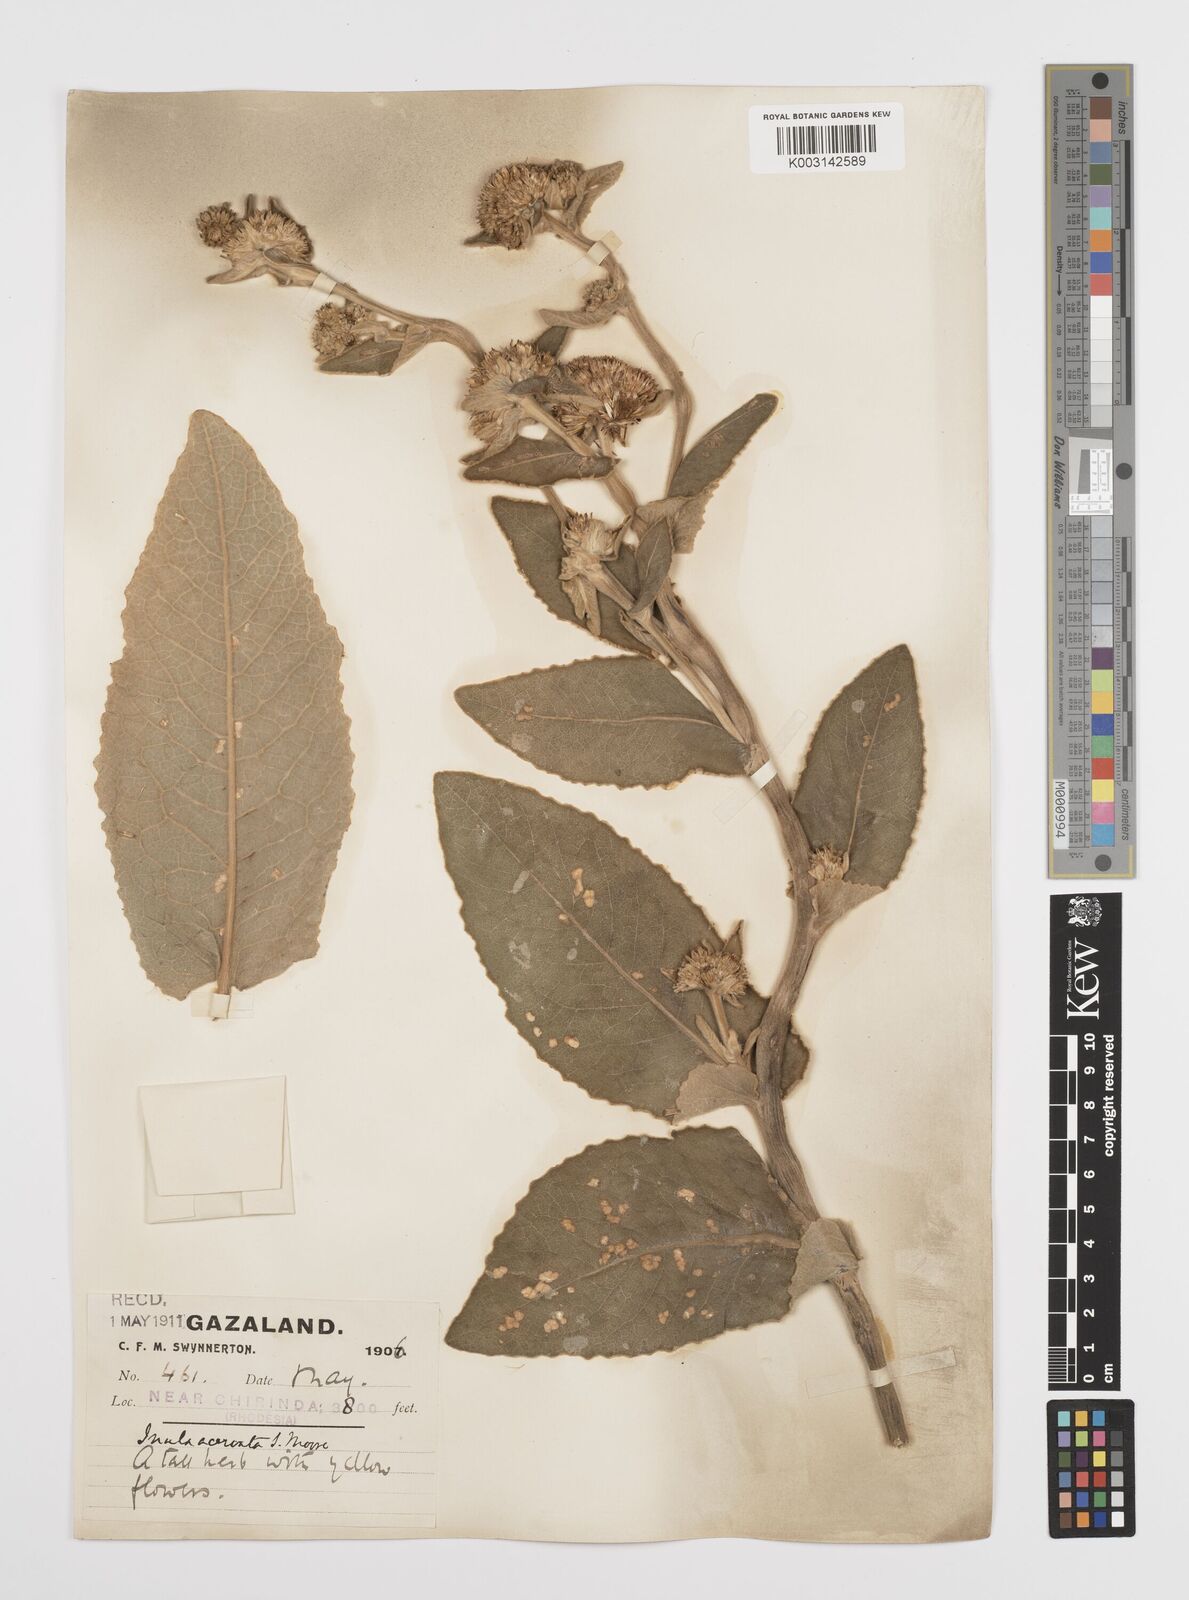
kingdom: Plantae
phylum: Tracheophyta
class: Magnoliopsida
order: Asterales
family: Asteraceae
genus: Inula
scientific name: Inula glomerata
